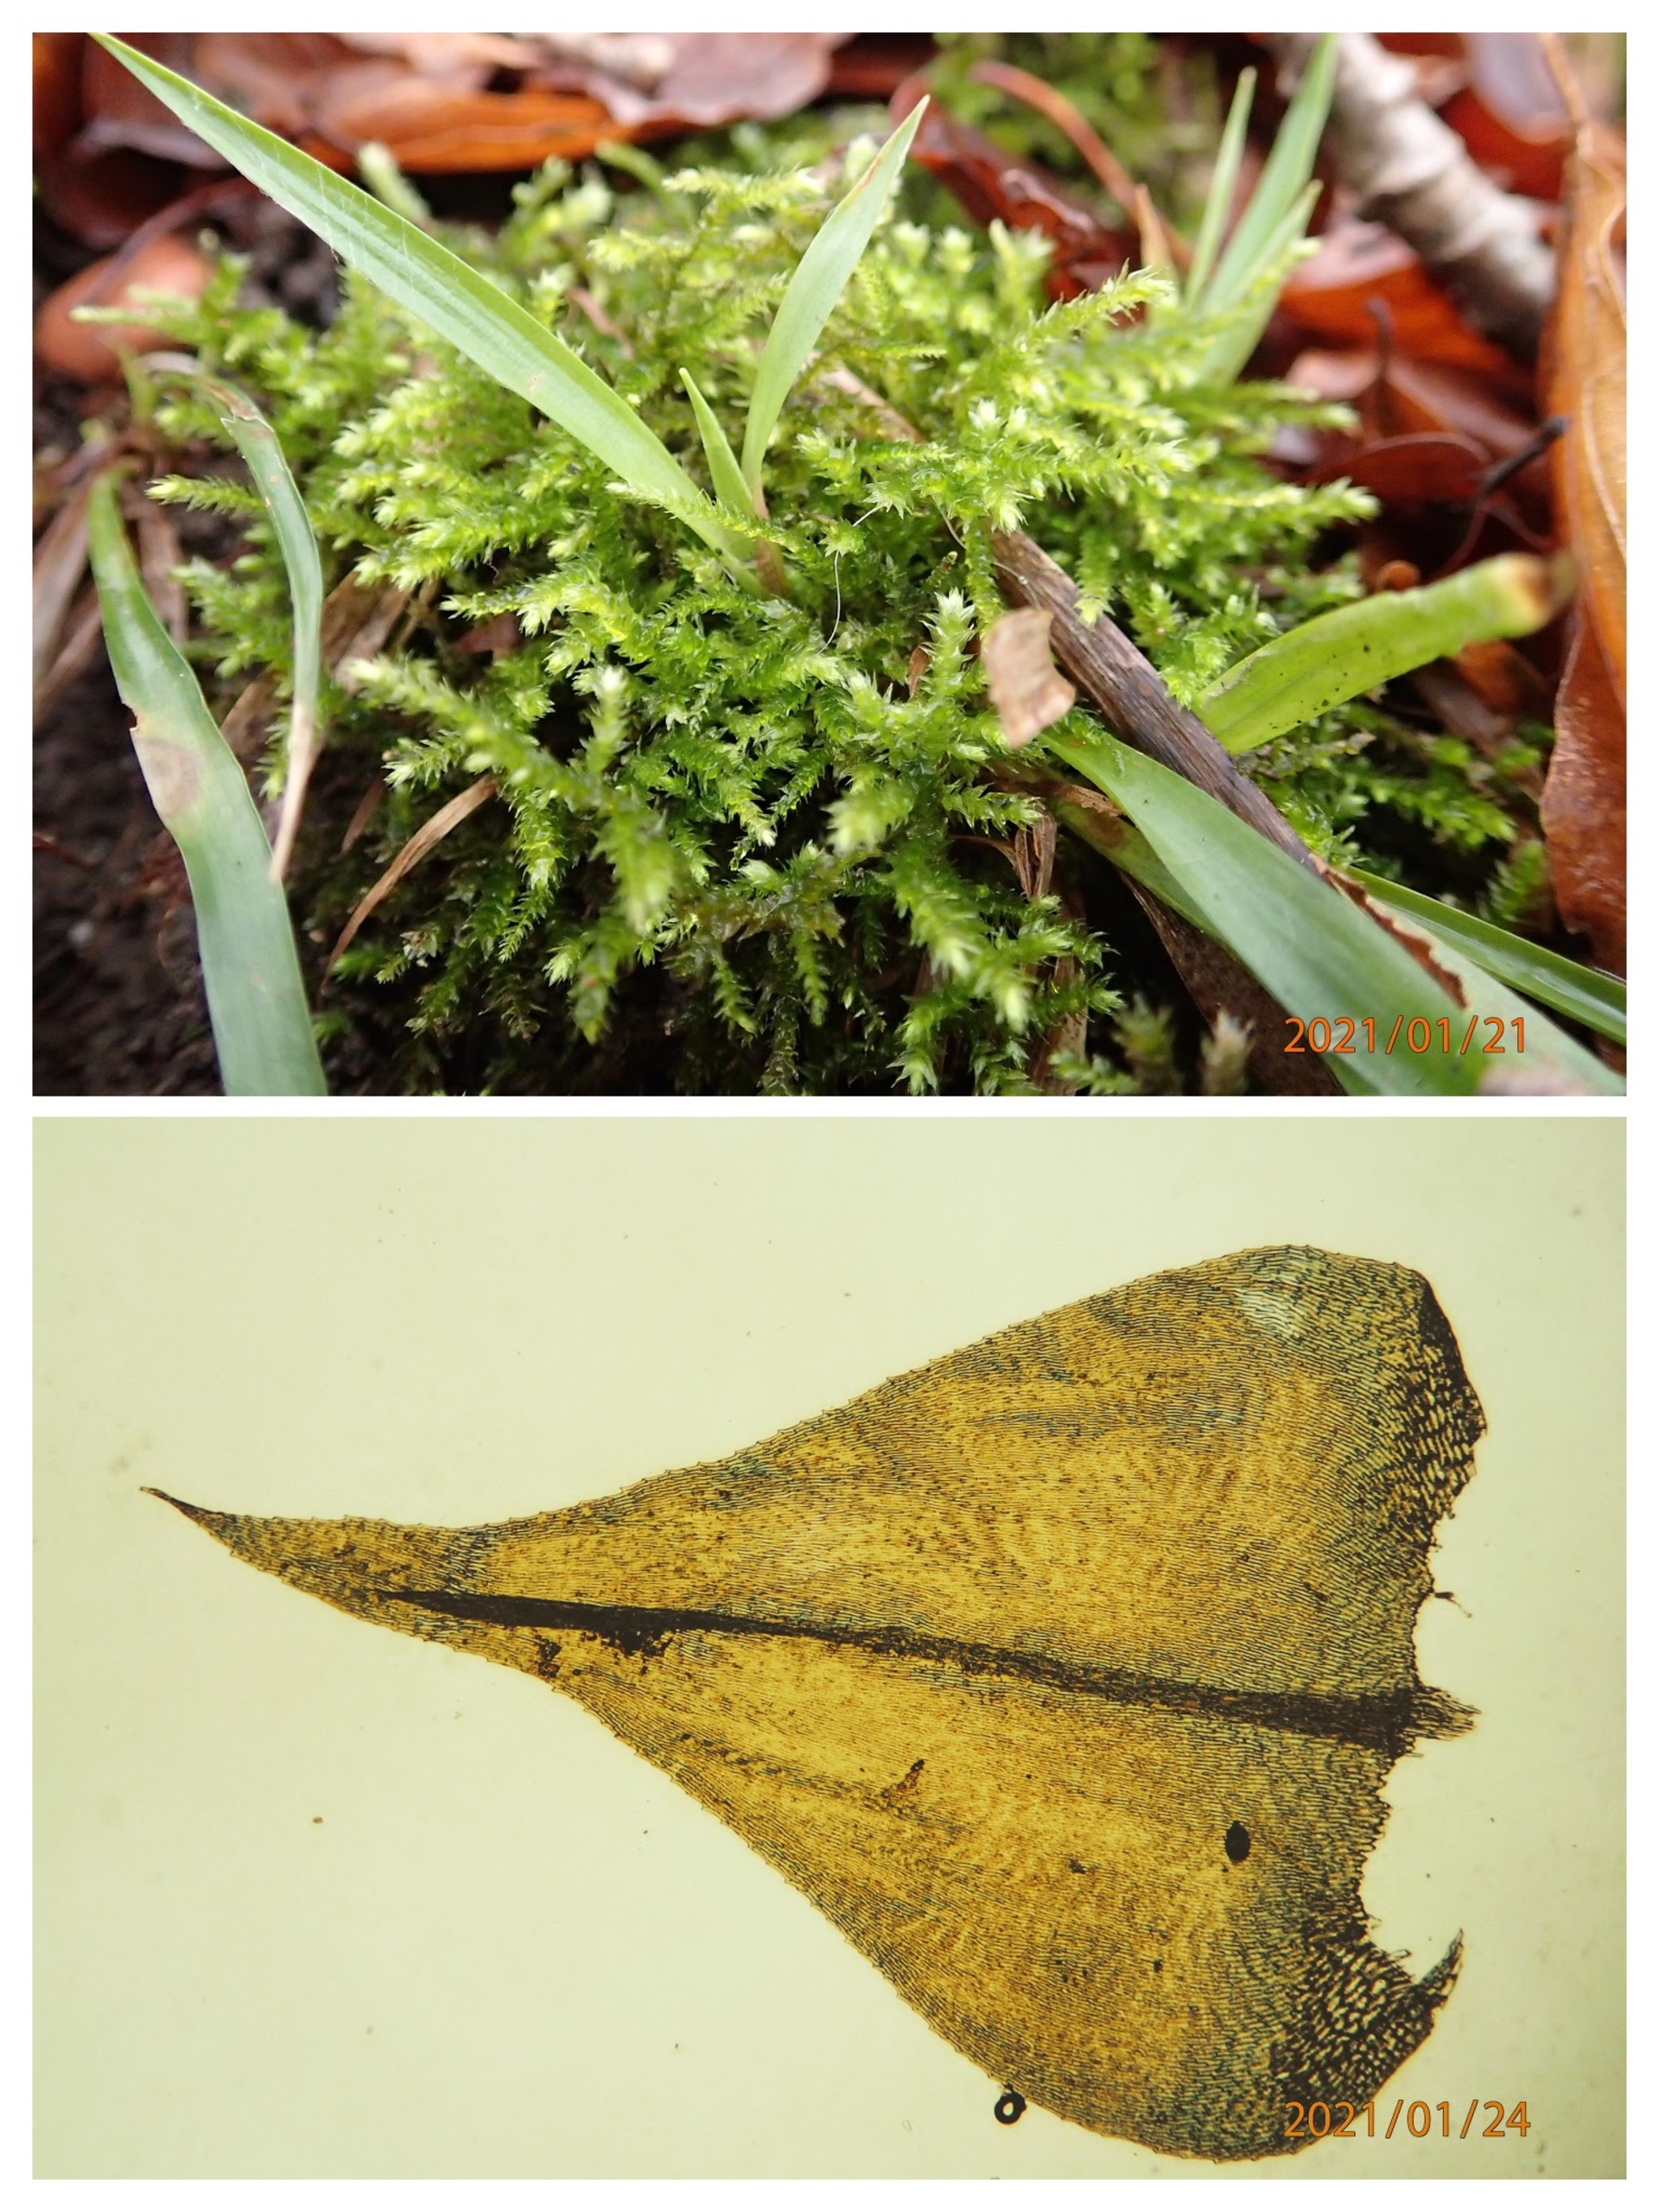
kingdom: Plantae
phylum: Bryophyta
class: Bryopsida
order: Hypnales
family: Brachytheciaceae
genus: Eurhynchium
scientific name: Eurhynchium striatum
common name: Stribet næbmos
